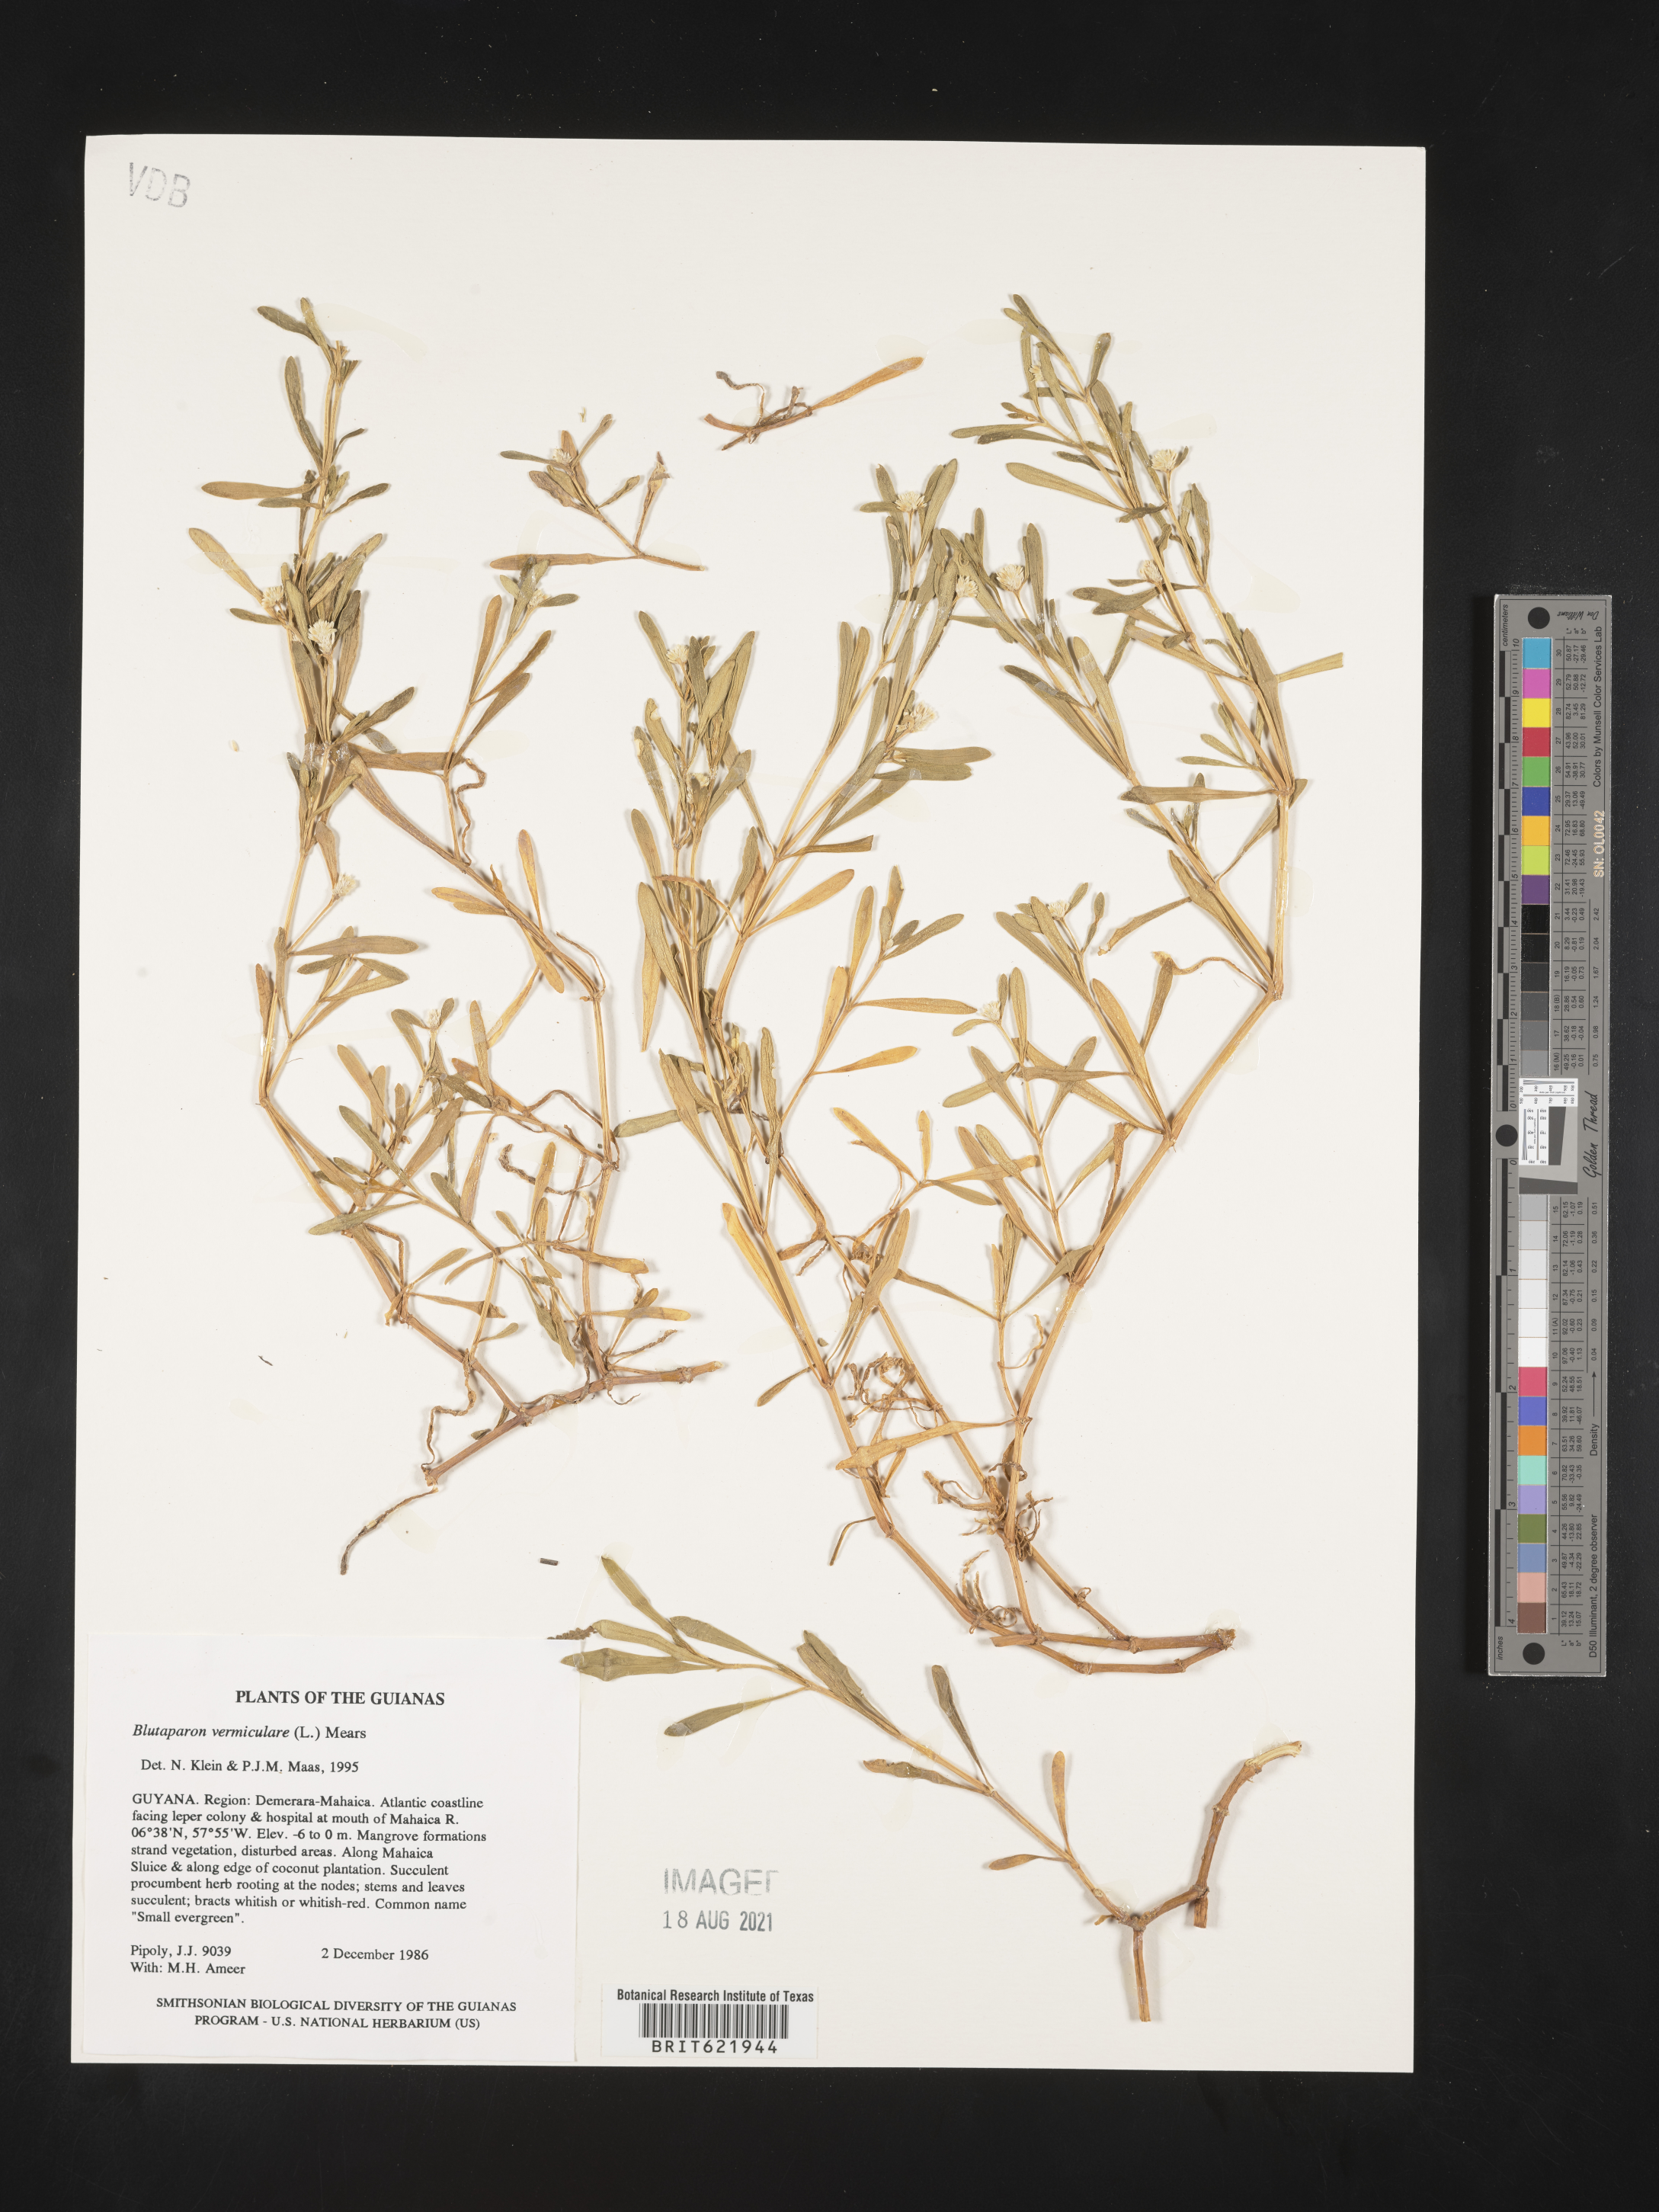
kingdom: Plantae
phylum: Tracheophyta
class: Magnoliopsida
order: Caryophyllales
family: Amaranthaceae
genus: Gomphrena
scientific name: Gomphrena vermicularis
